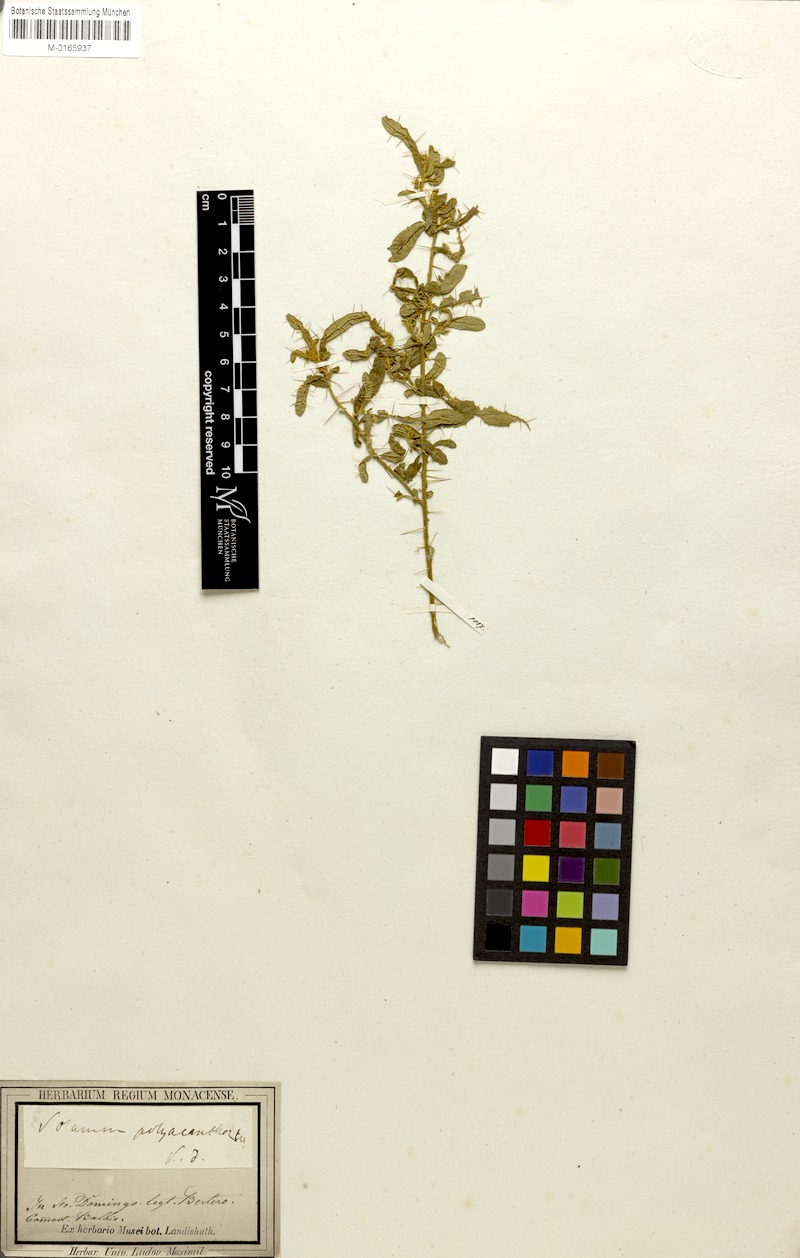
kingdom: Plantae
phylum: Tracheophyta
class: Magnoliopsida
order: Solanales
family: Solanaceae
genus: Solanum
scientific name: Solanum polyacanthos
